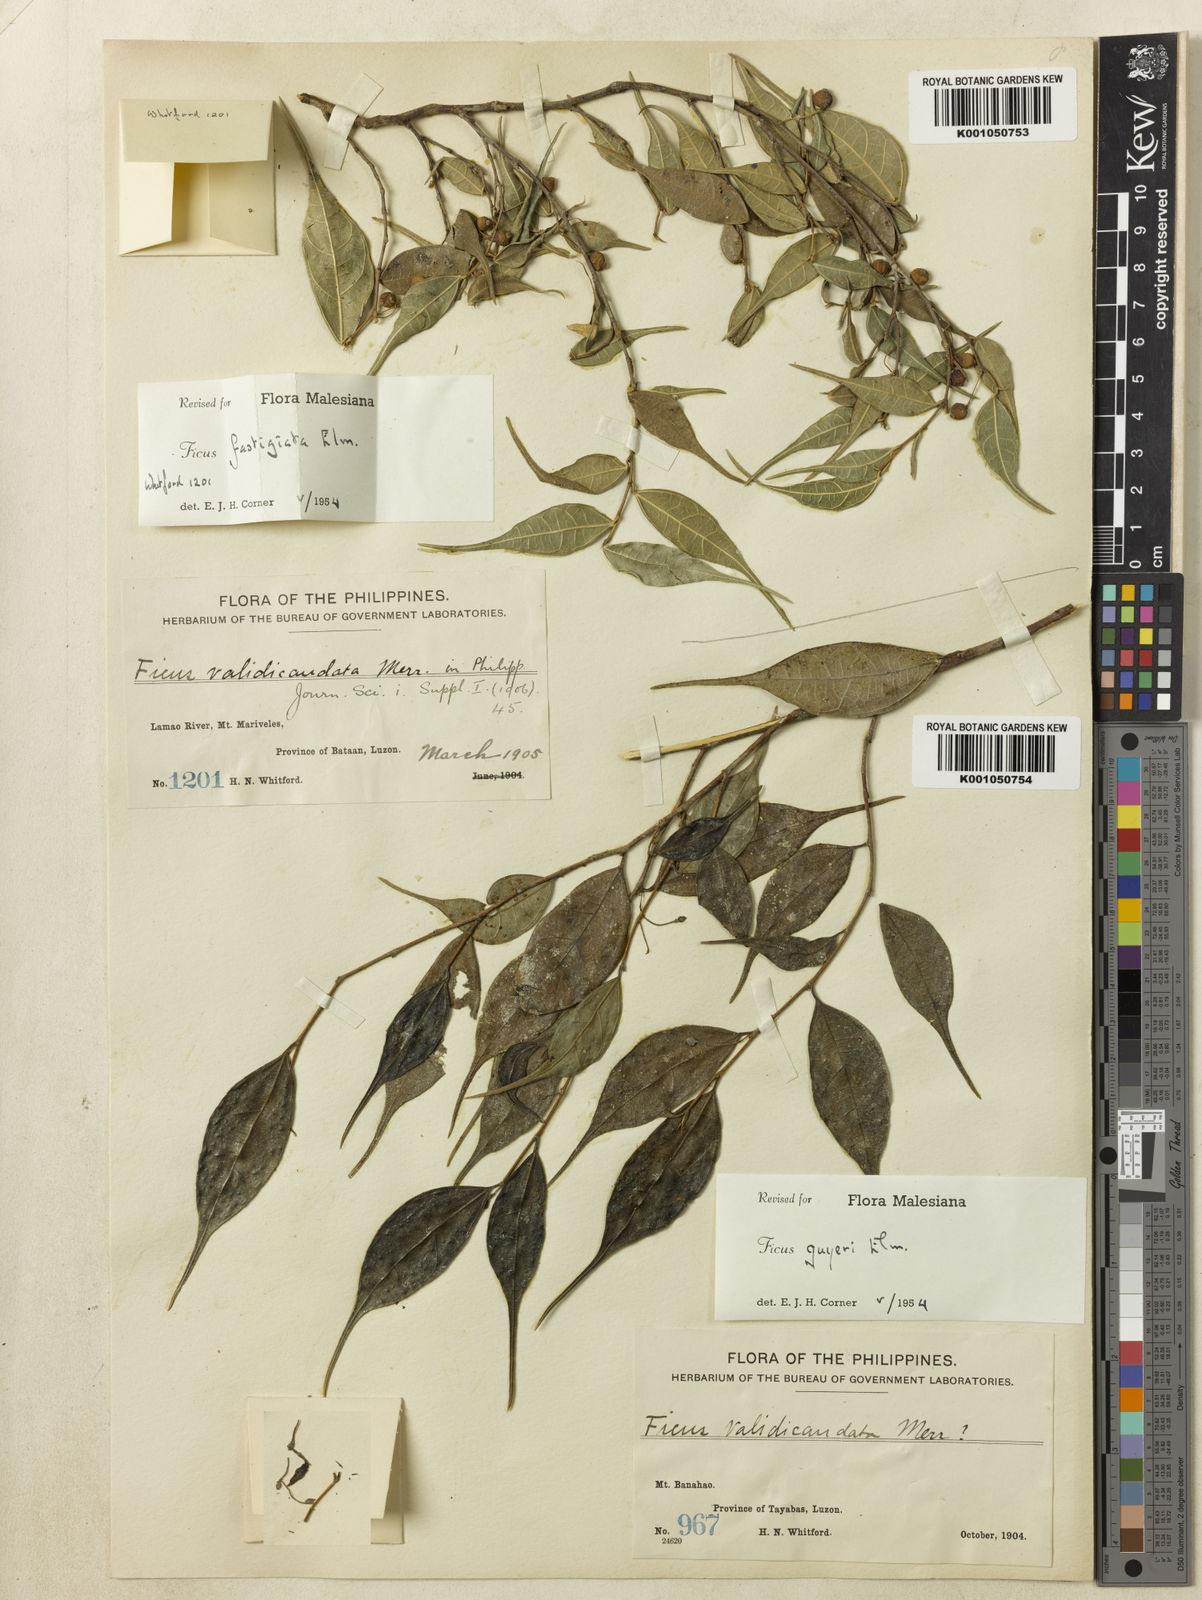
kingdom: Plantae
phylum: Tracheophyta
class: Magnoliopsida
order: Rosales
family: Moraceae
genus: Ficus
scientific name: Ficus ampelos
